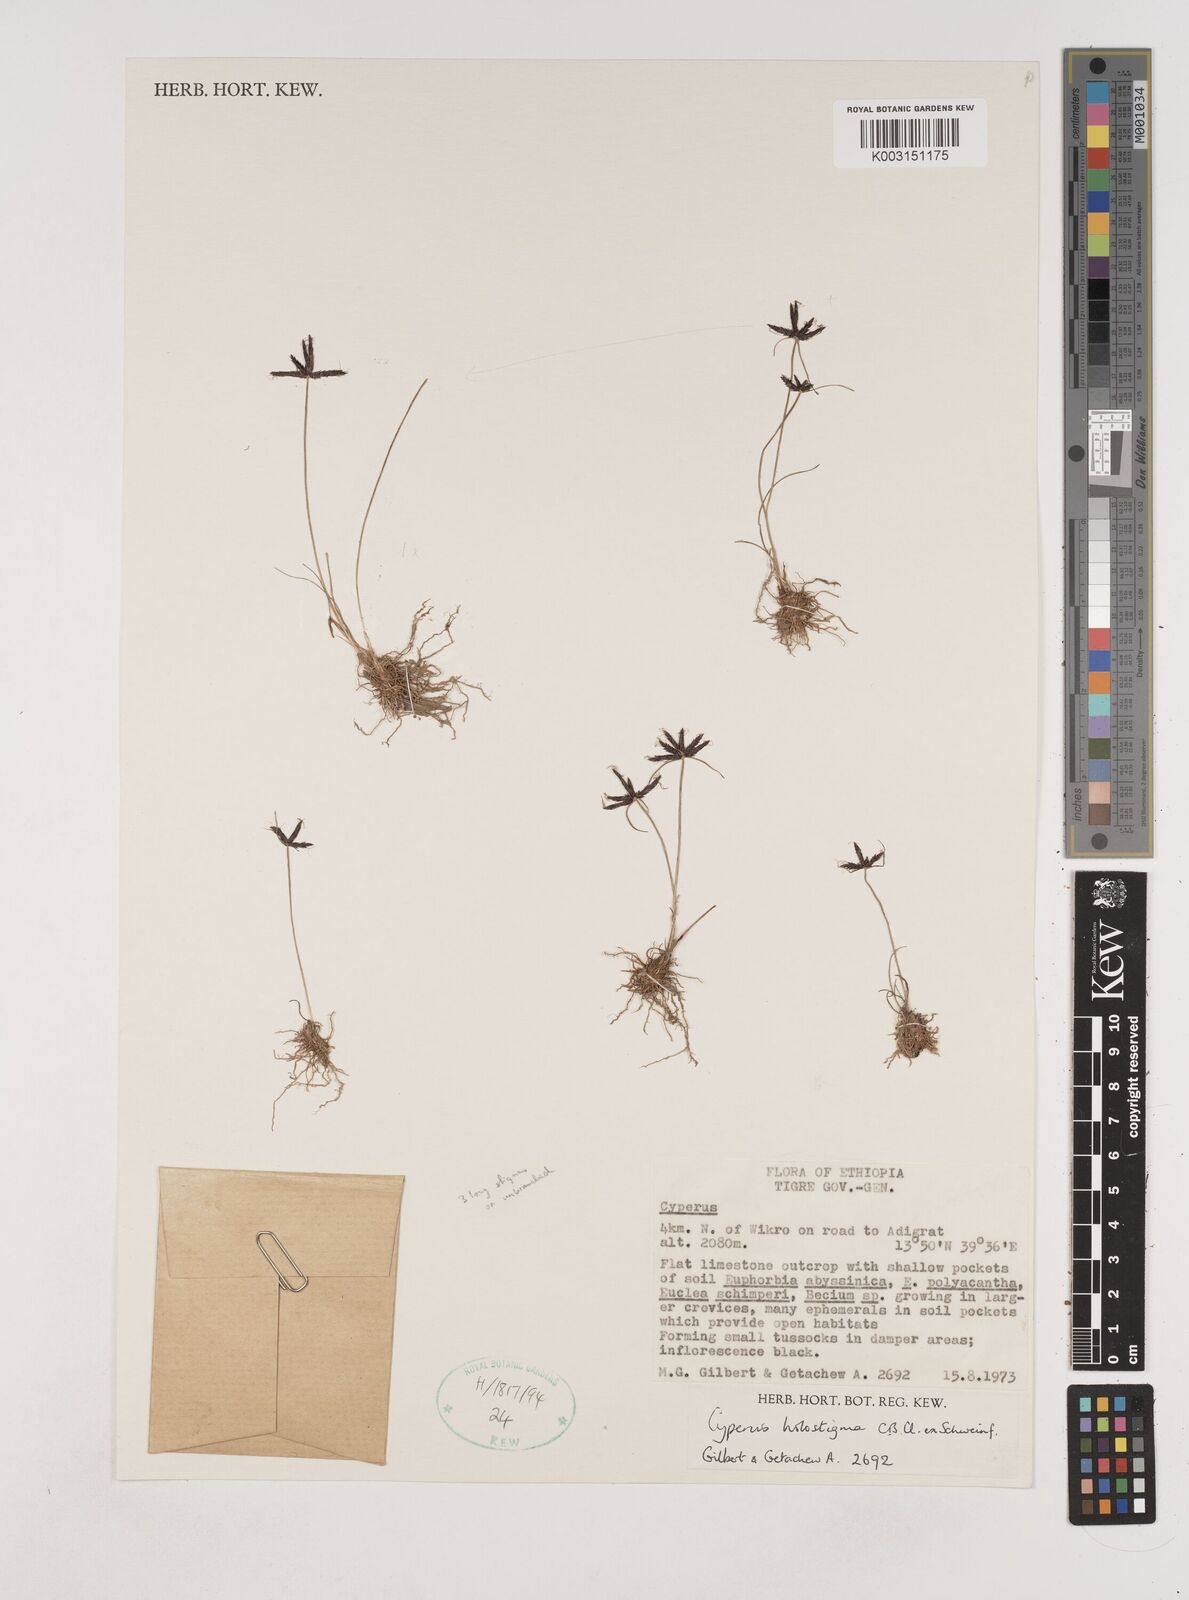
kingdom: Plantae
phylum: Tracheophyta
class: Liliopsida
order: Poales
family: Cyperaceae
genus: Cyperus
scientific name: Cyperus holostigma
